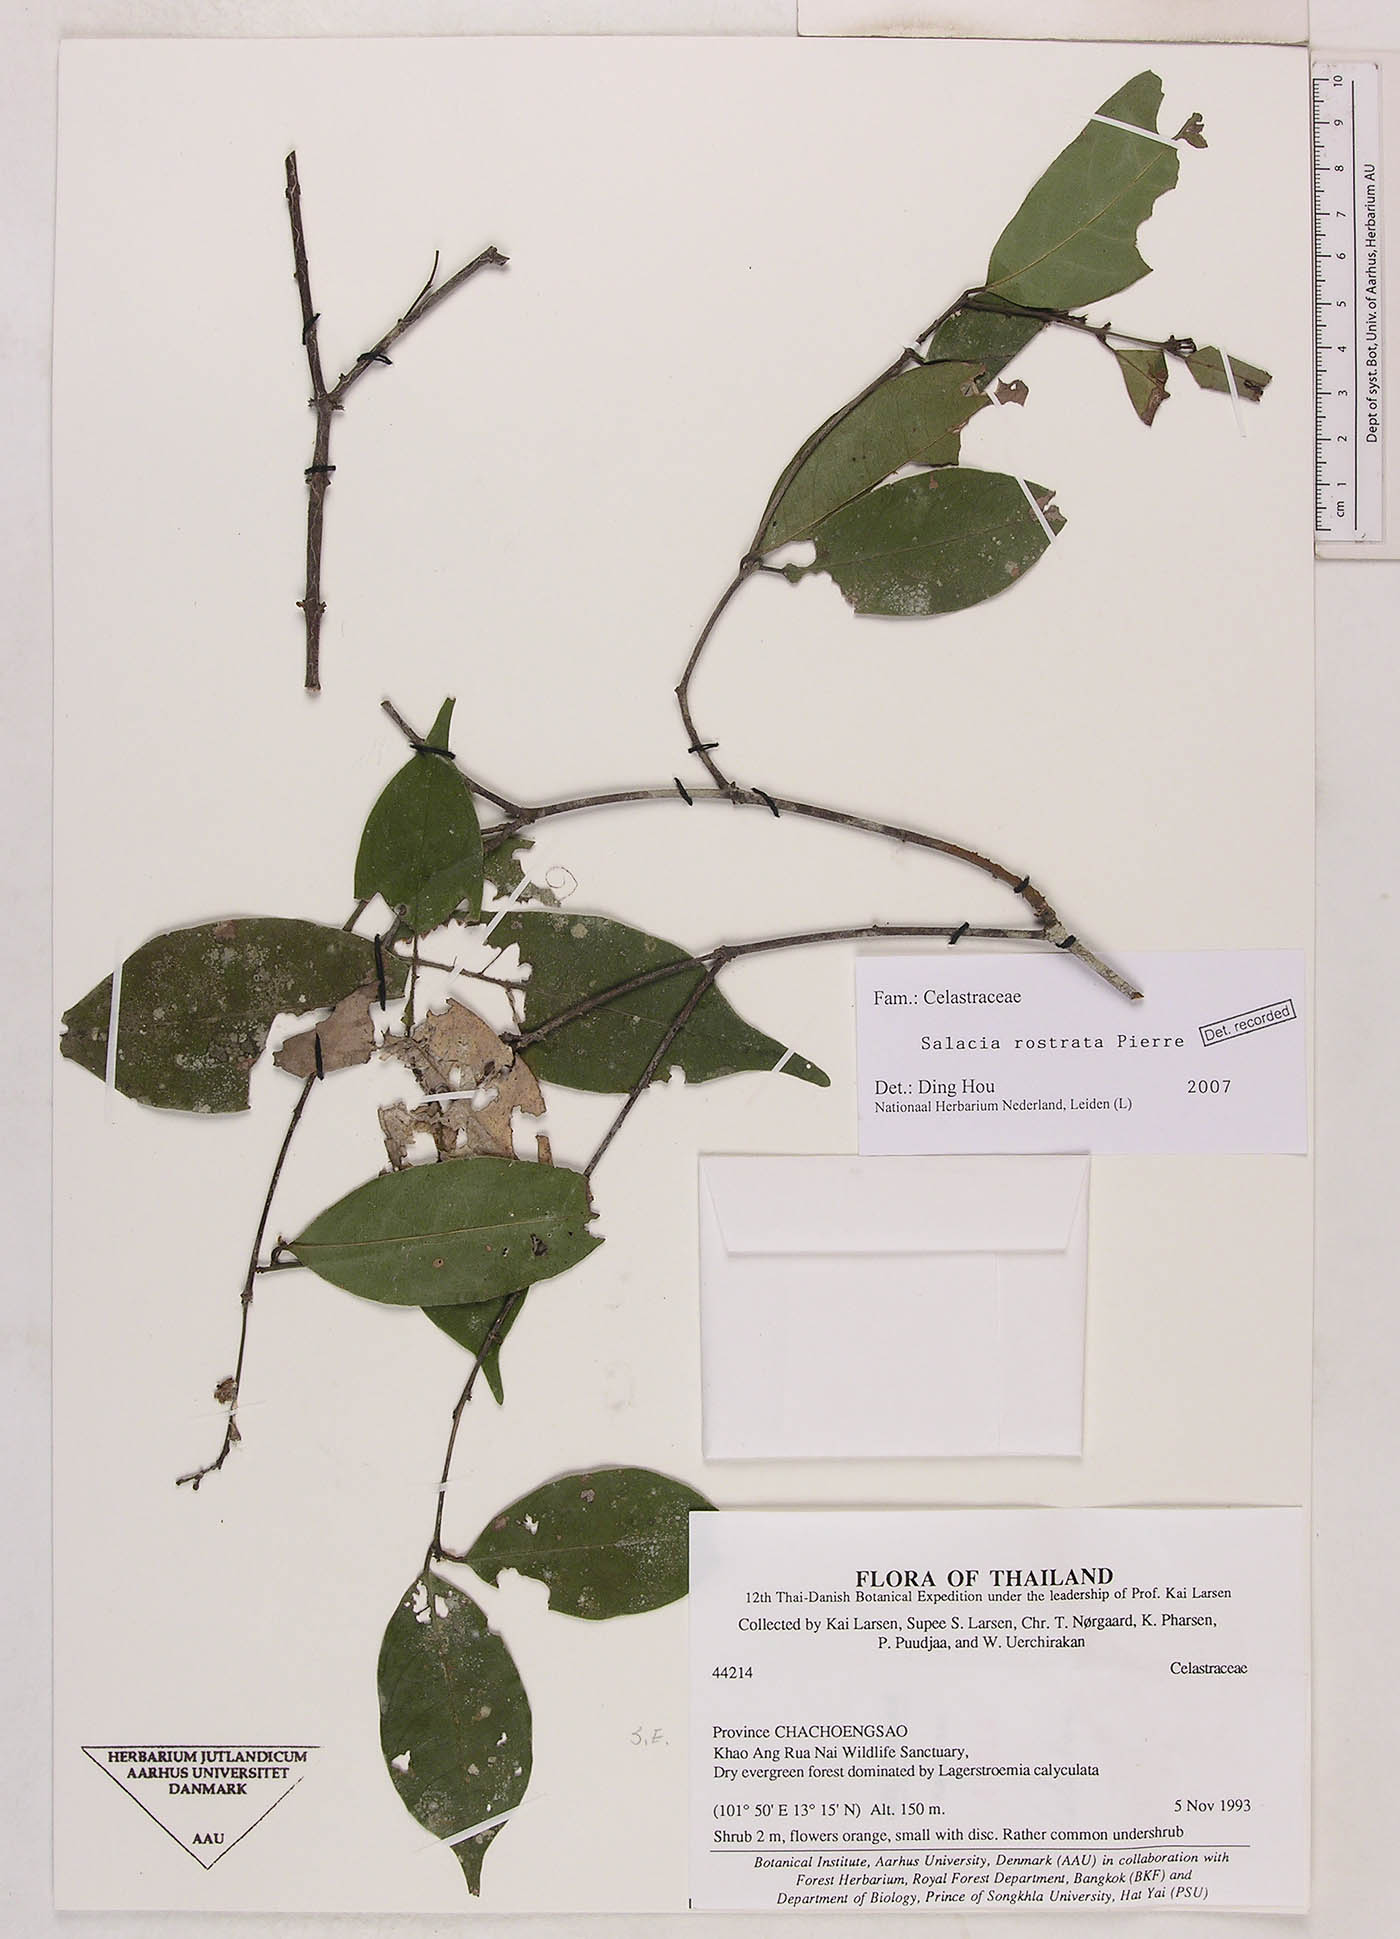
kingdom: Plantae
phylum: Tracheophyta
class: Magnoliopsida
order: Celastrales
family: Celastraceae
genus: Salacia
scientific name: Salacia rostrata
